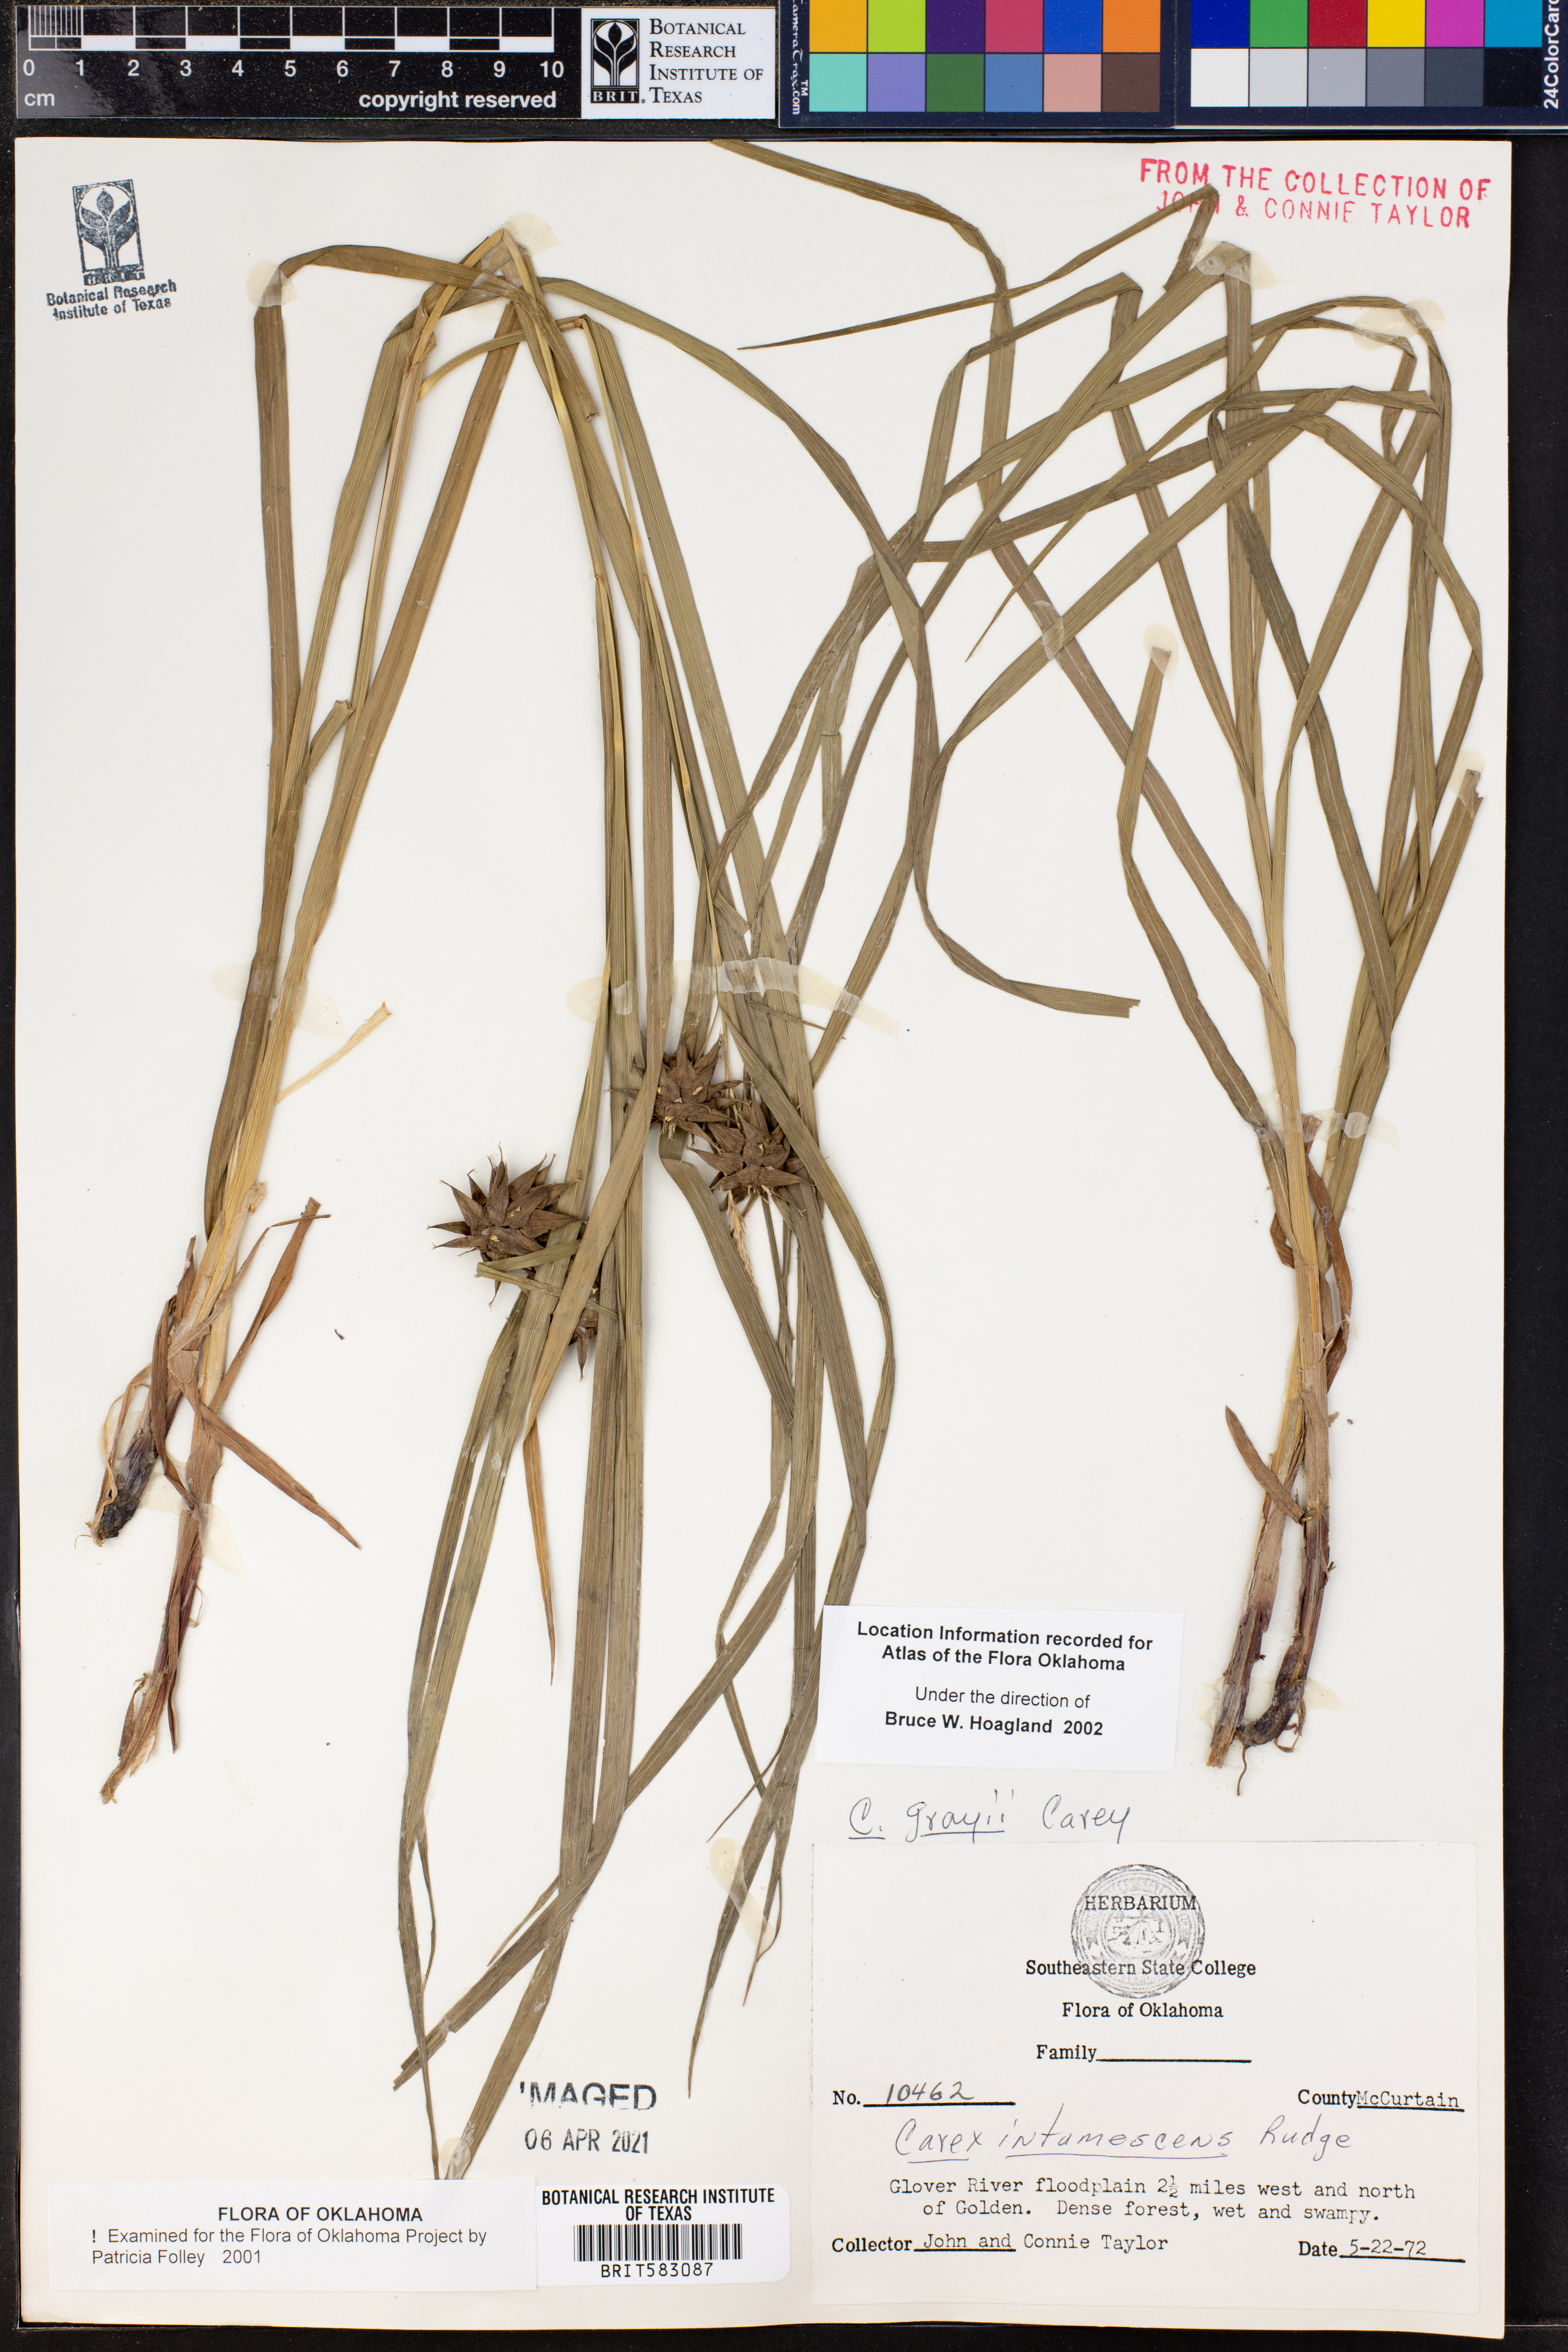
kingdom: Plantae
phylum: Tracheophyta
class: Liliopsida
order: Poales
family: Cyperaceae
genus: Carex
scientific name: Carex grayi
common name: Asa gray's sedge
